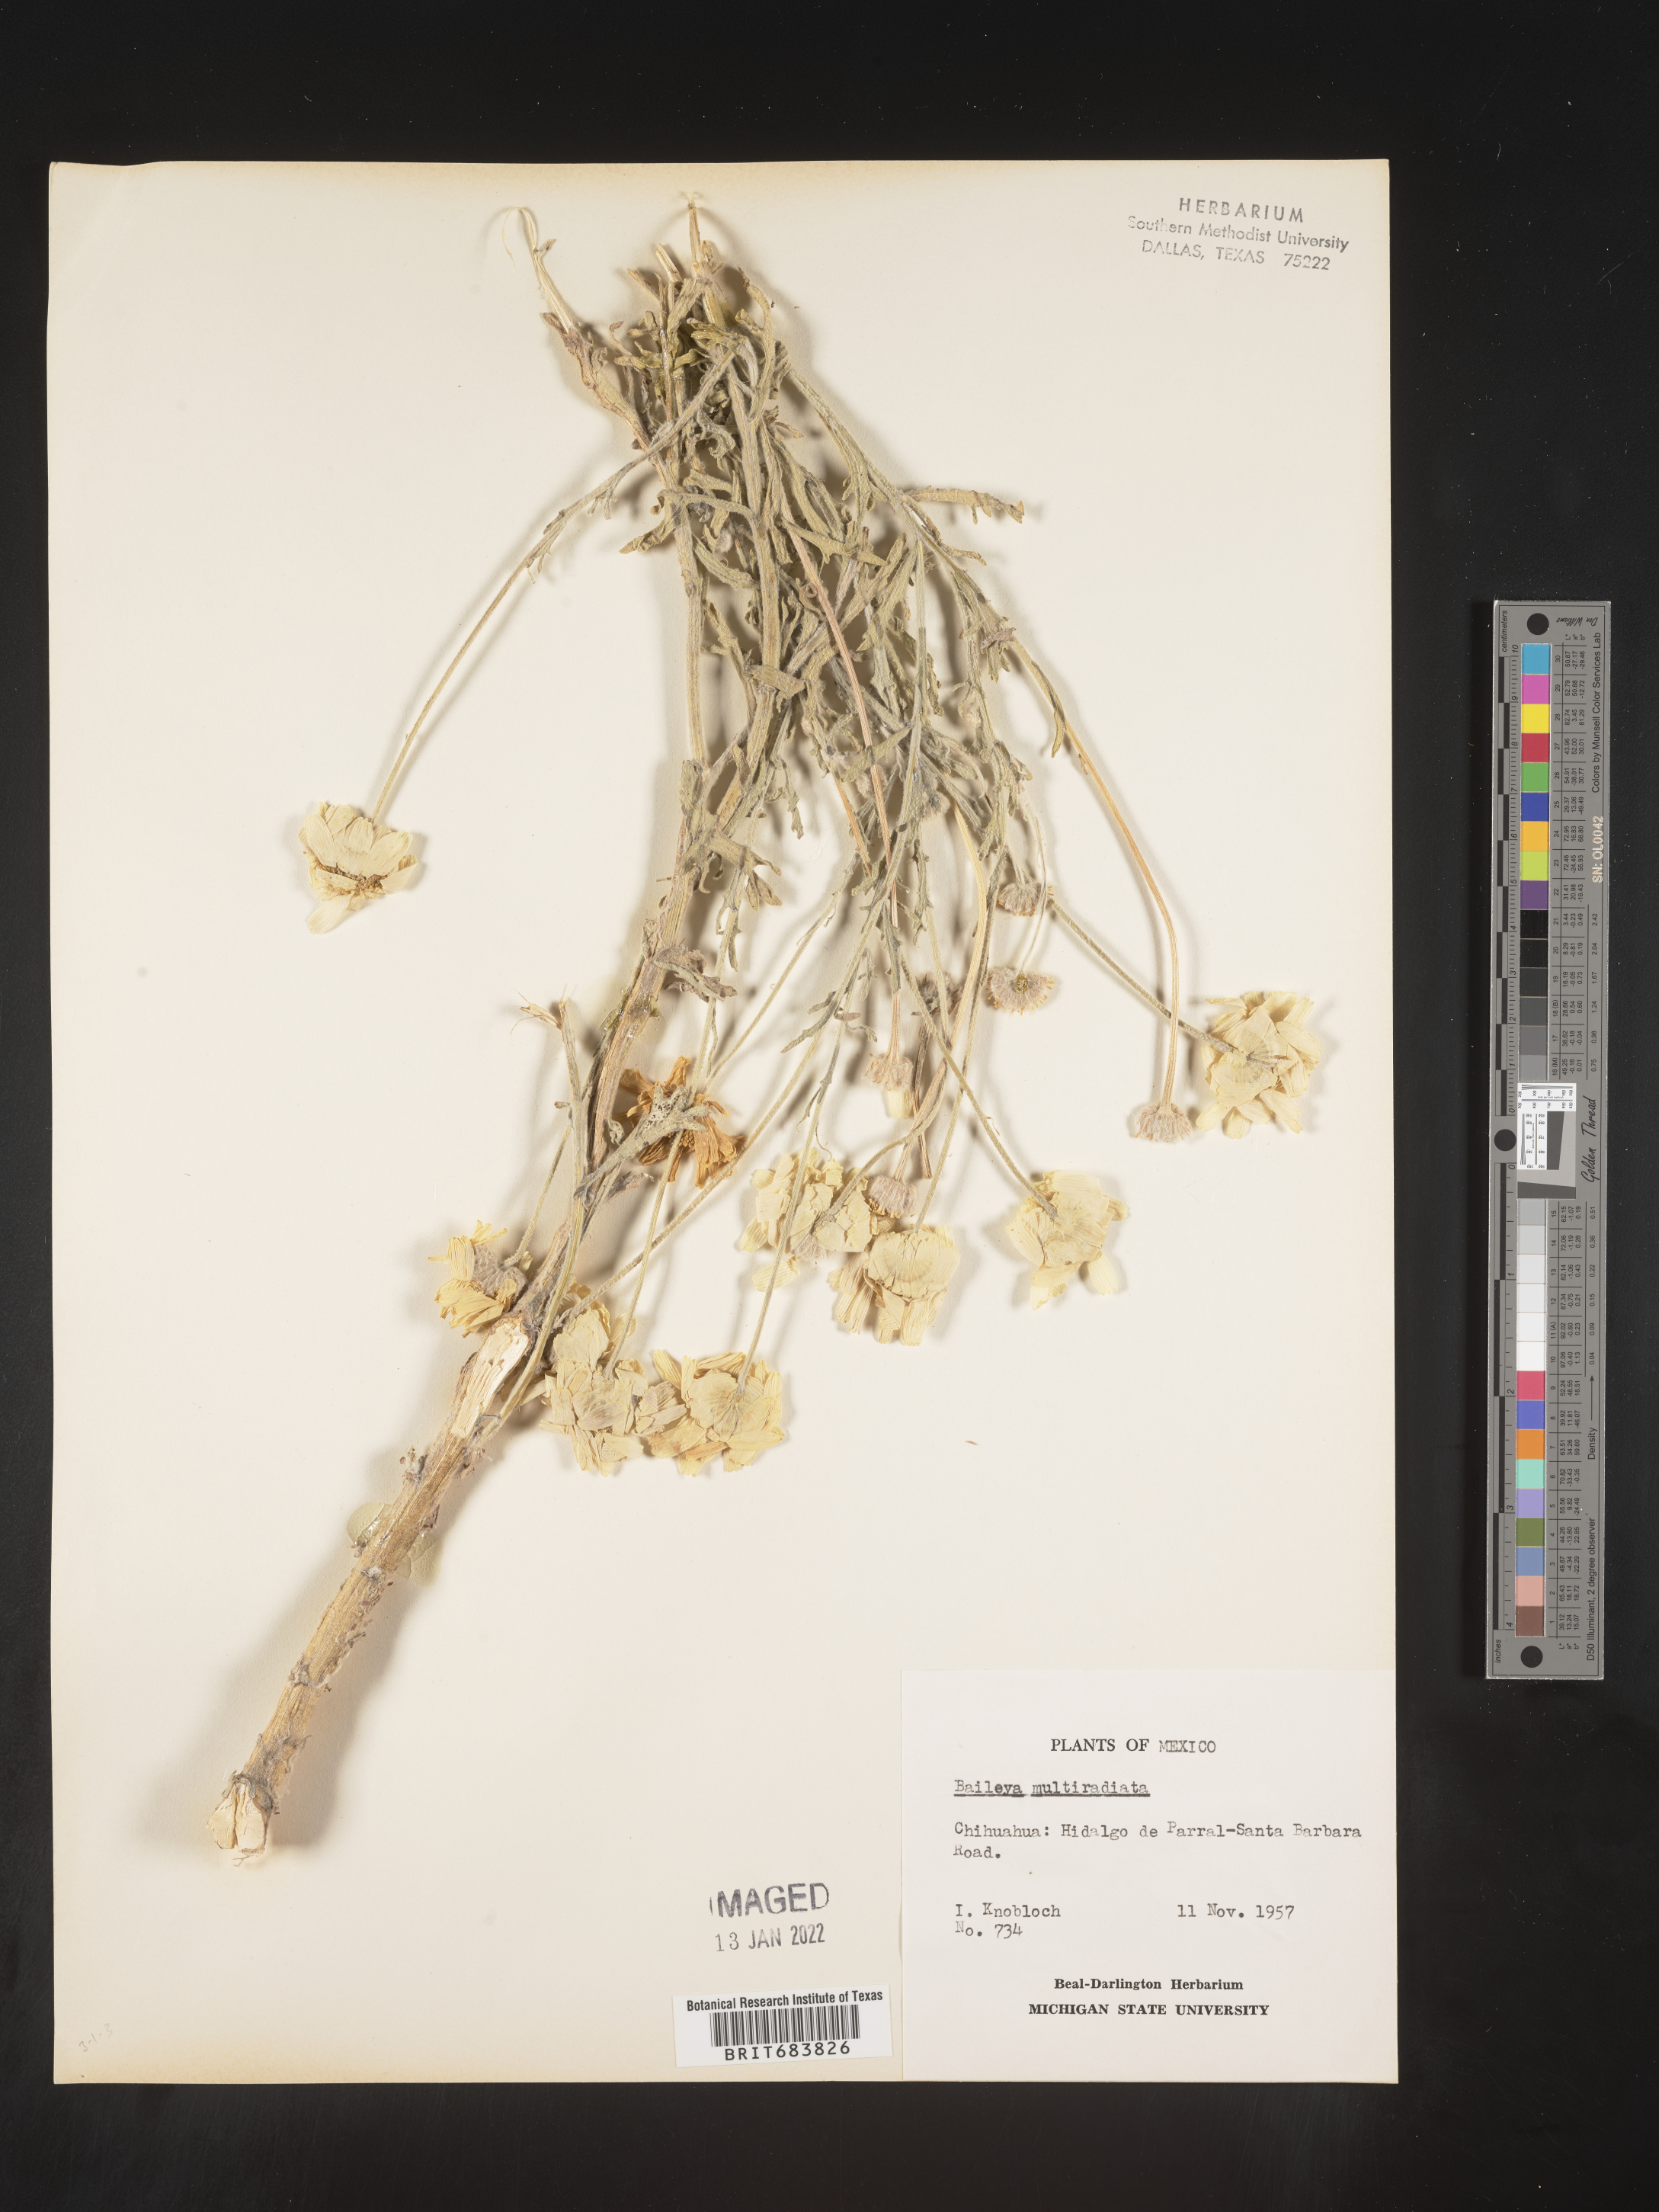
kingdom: Plantae
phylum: Tracheophyta
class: Magnoliopsida
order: Asterales
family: Asteraceae
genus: Baileya
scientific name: Baileya
